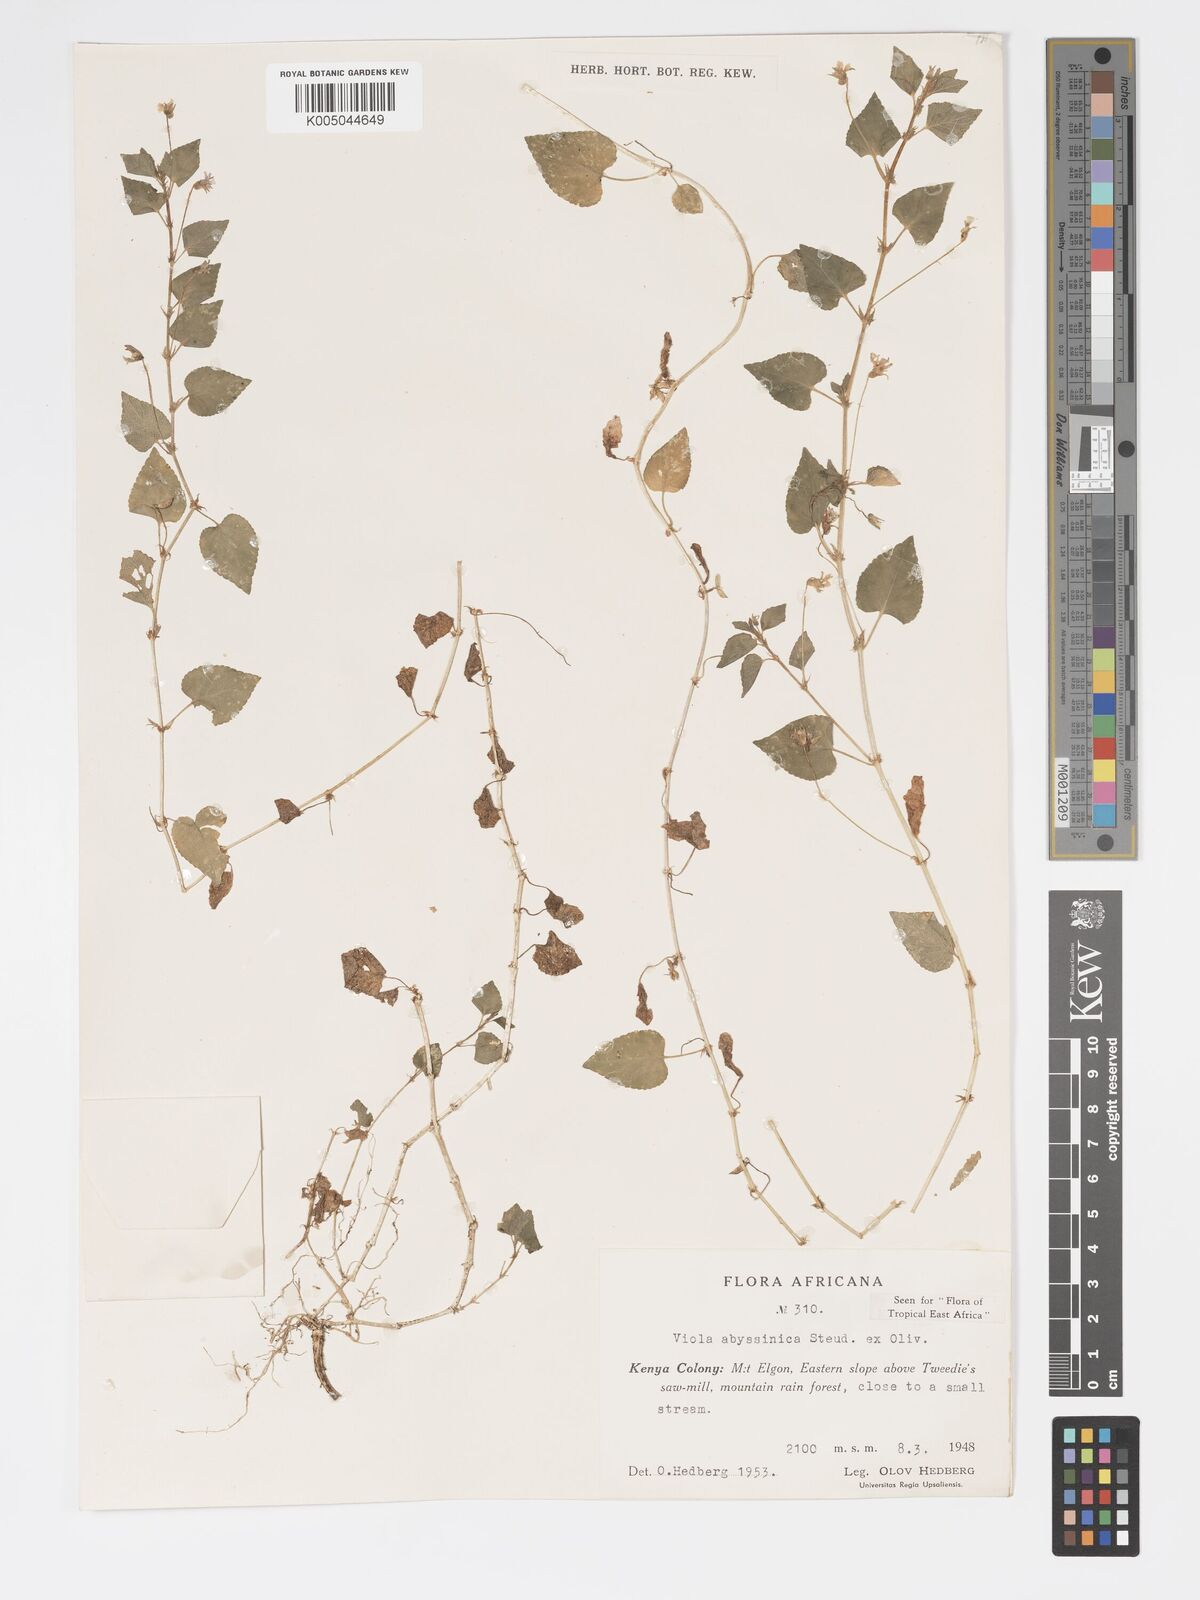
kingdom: Plantae
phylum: Tracheophyta
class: Magnoliopsida
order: Malpighiales
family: Violaceae
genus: Viola
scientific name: Viola abyssinica
